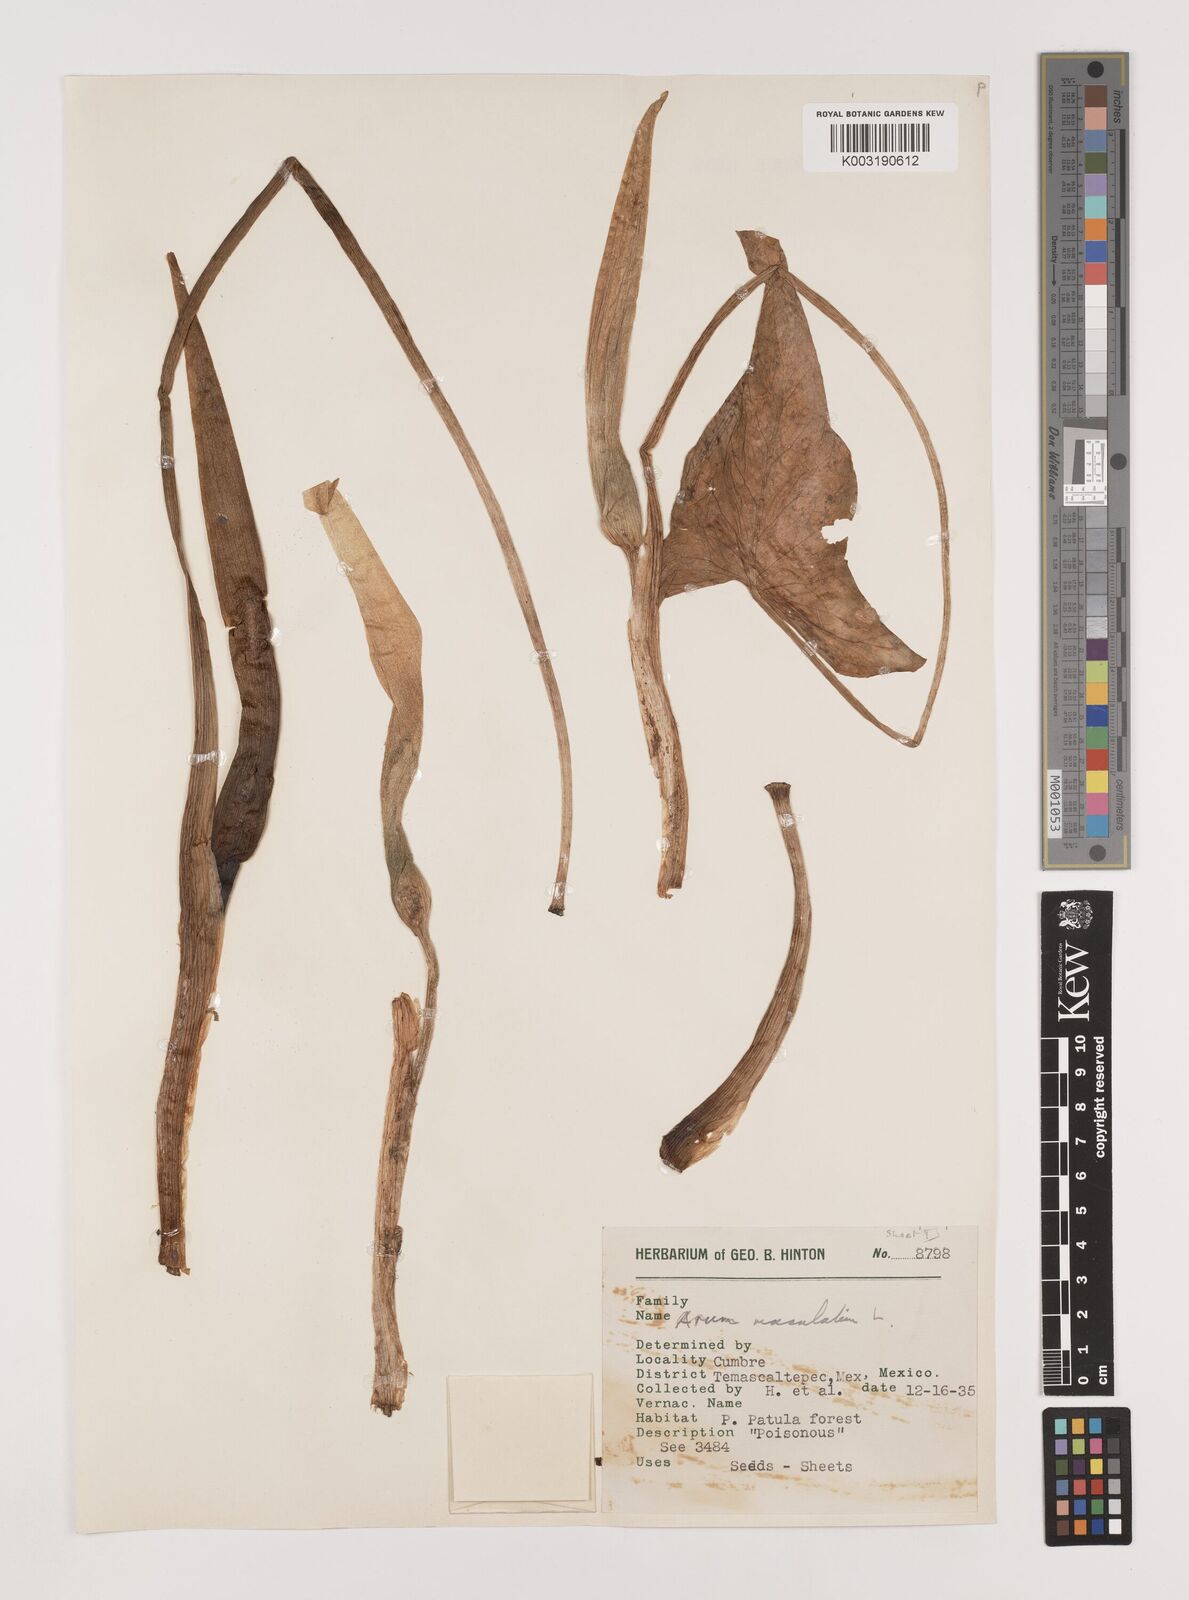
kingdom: Plantae
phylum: Tracheophyta
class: Liliopsida
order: Alismatales
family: Araceae
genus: Arum
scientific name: Arum
